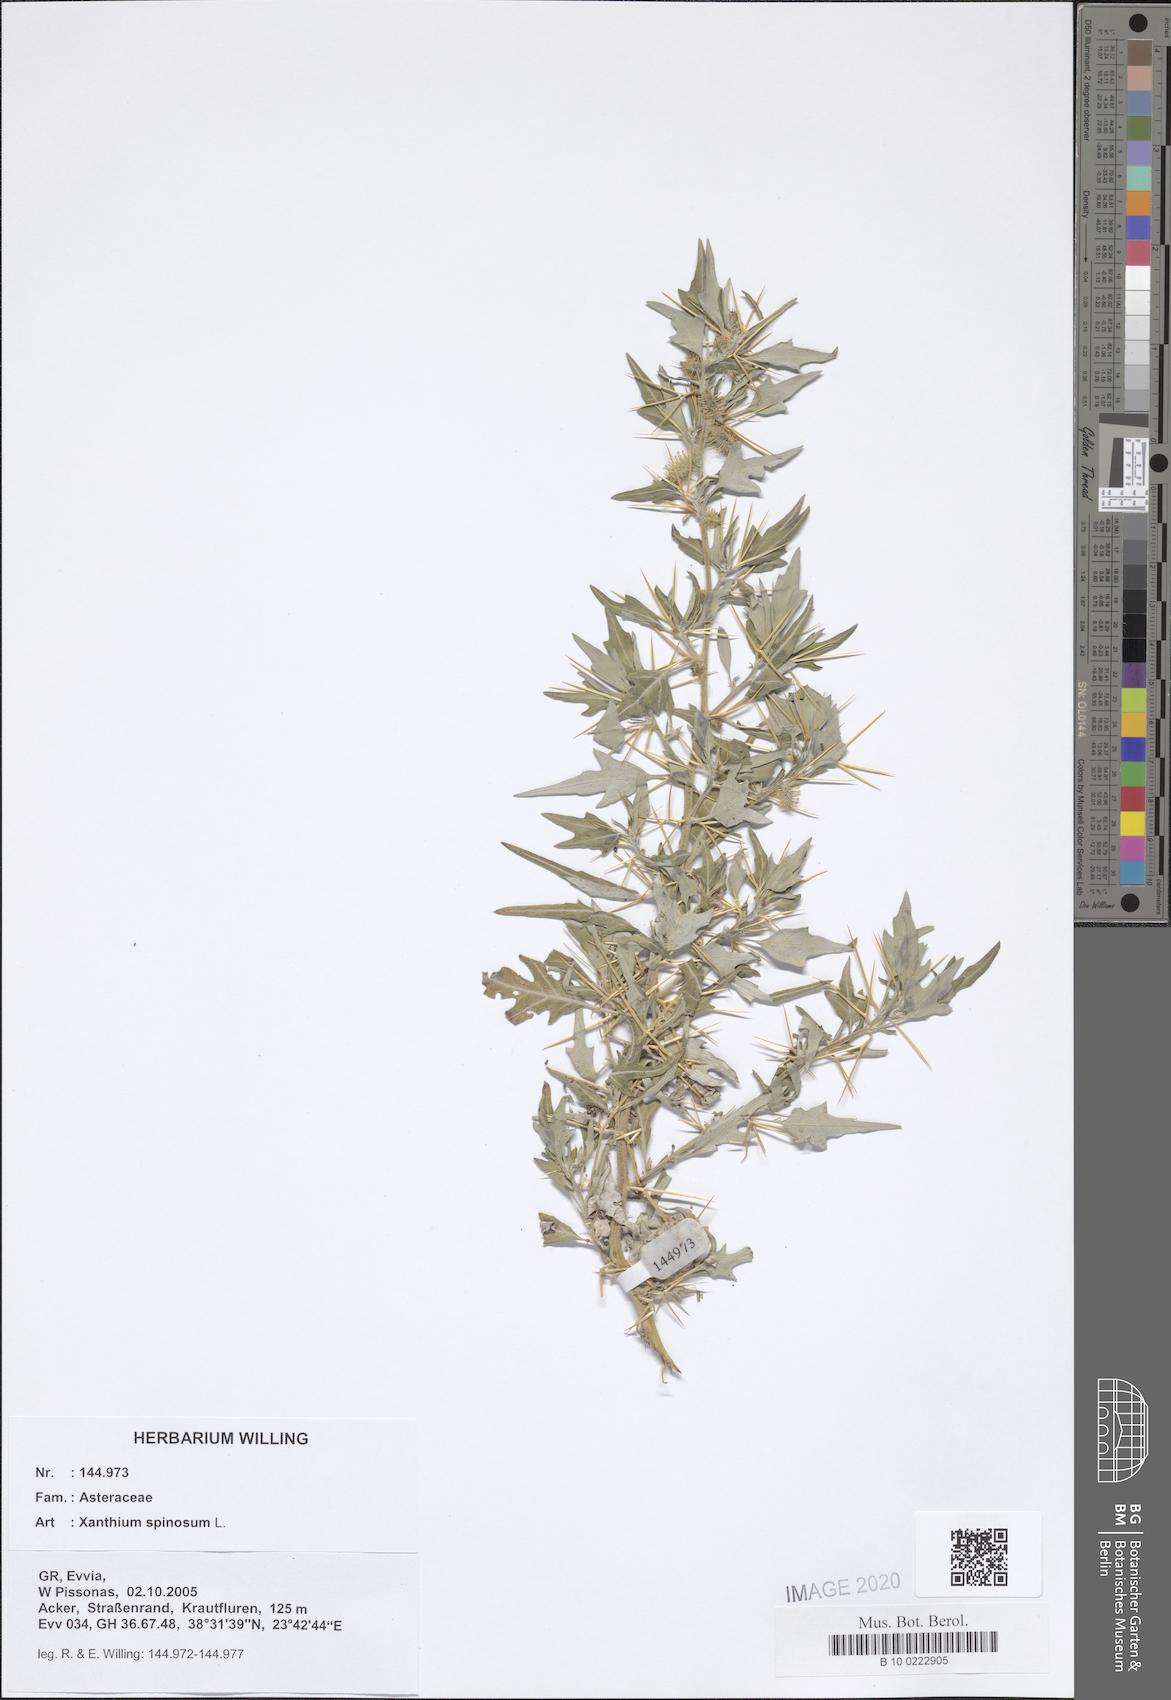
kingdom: Plantae
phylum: Tracheophyta
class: Magnoliopsida
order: Asterales
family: Asteraceae
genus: Xanthium
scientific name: Xanthium spinosum
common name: Spiny cocklebur
